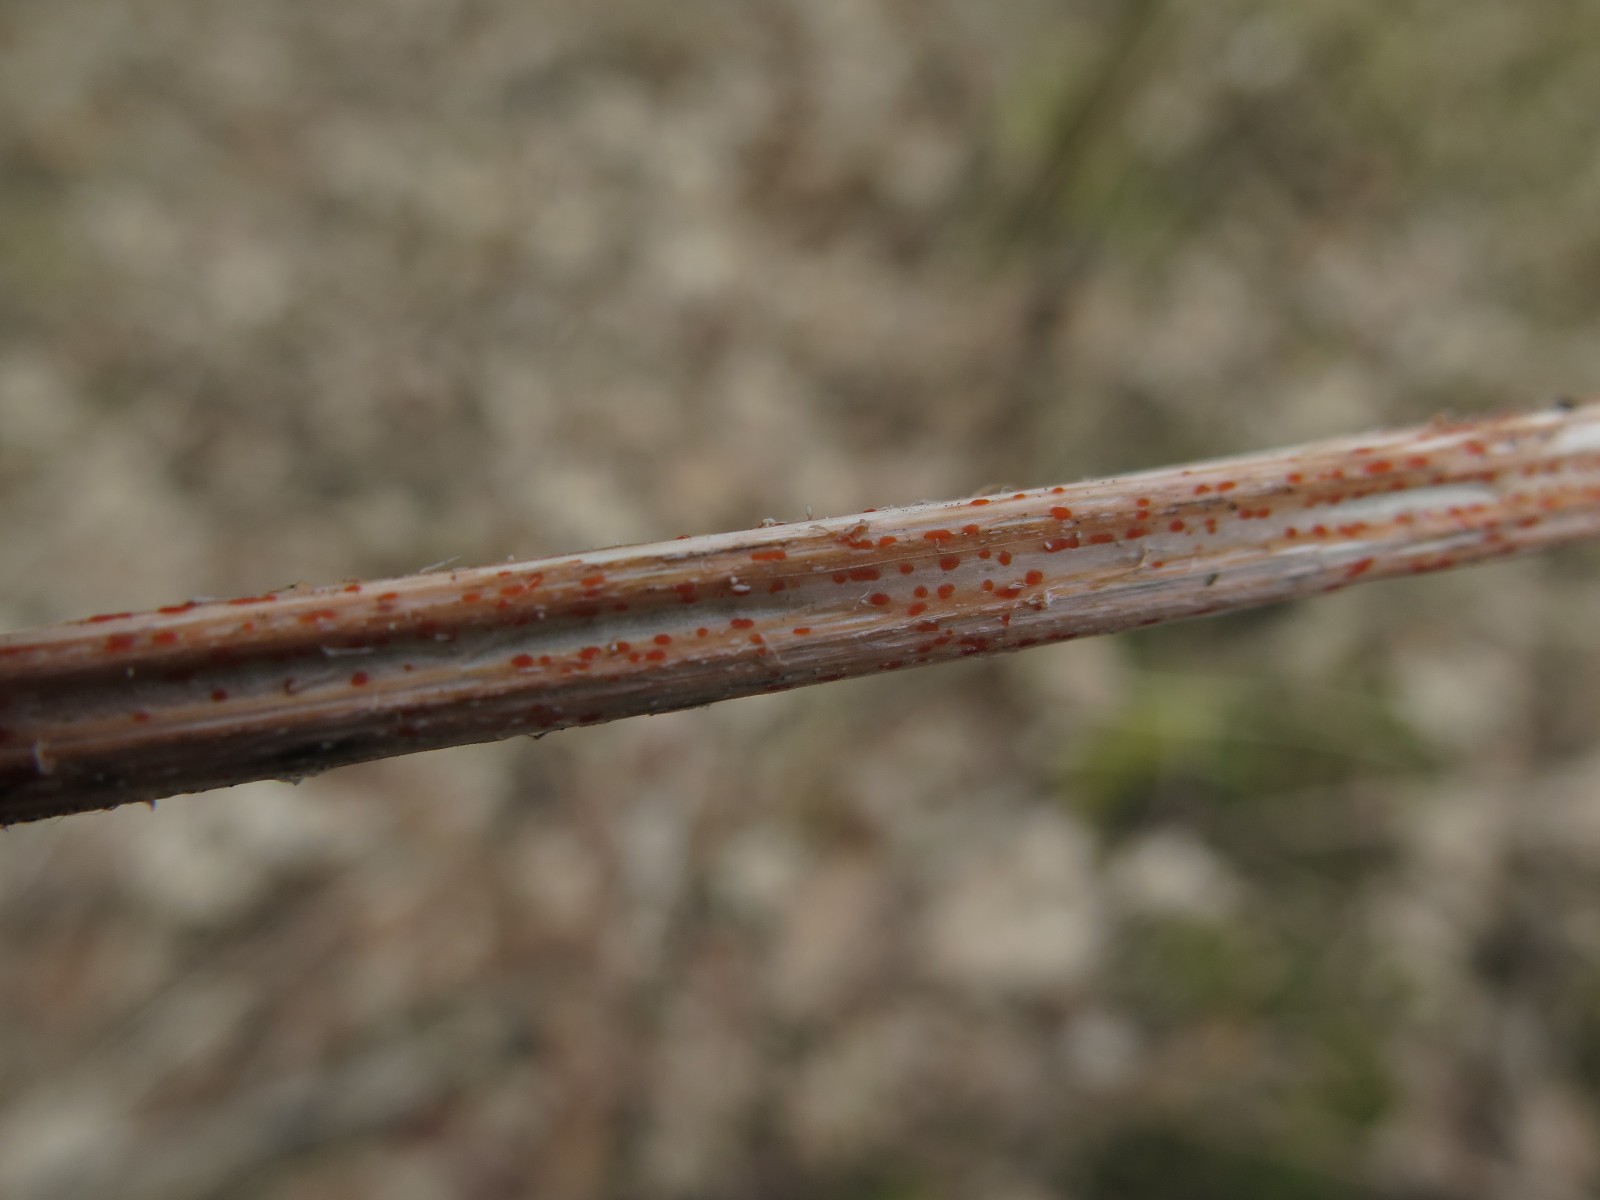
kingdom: Fungi
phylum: Ascomycota
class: Leotiomycetes
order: Helotiales
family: Calloriaceae
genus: Calloria
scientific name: Calloria urticae
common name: nælde-orangeskive
